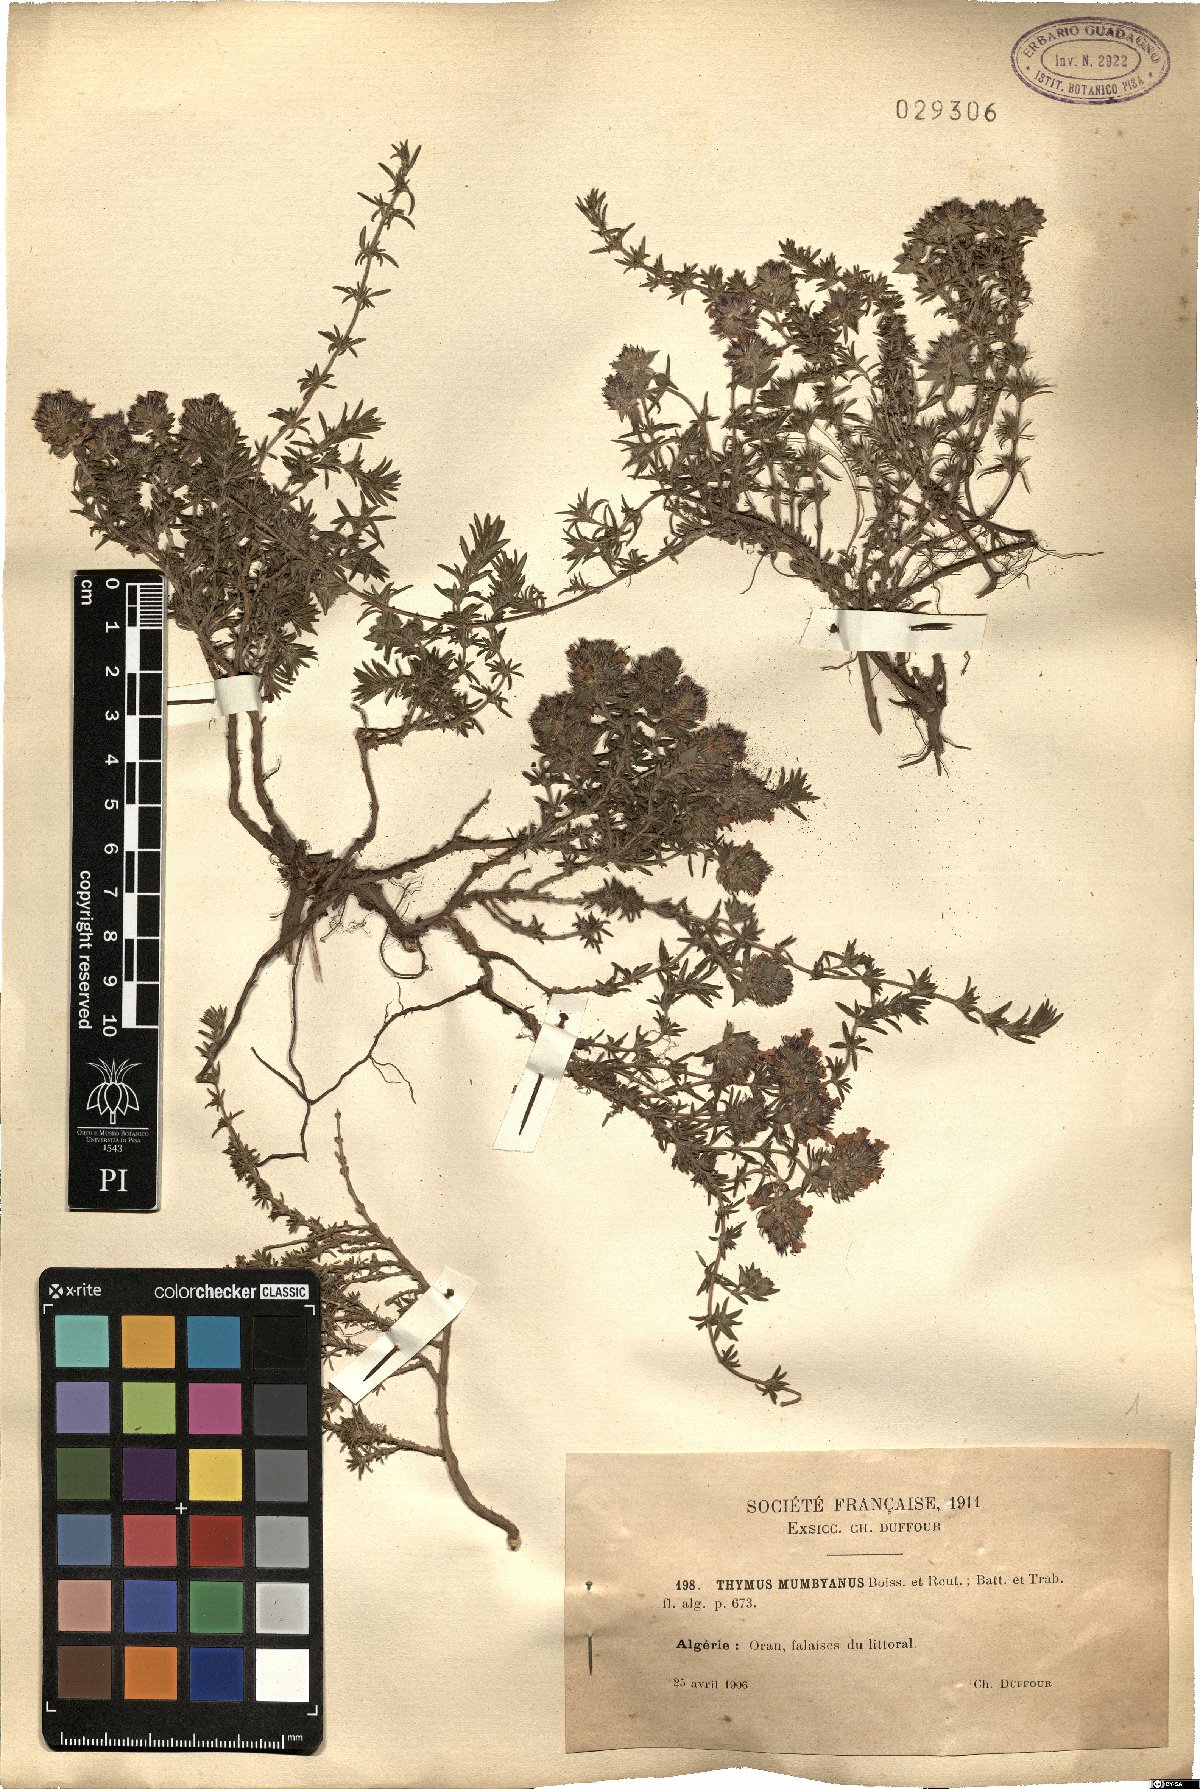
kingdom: Plantae
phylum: Tracheophyta
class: Magnoliopsida
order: Lamiales
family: Lamiaceae
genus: Thymus
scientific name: Thymus munbyanus
